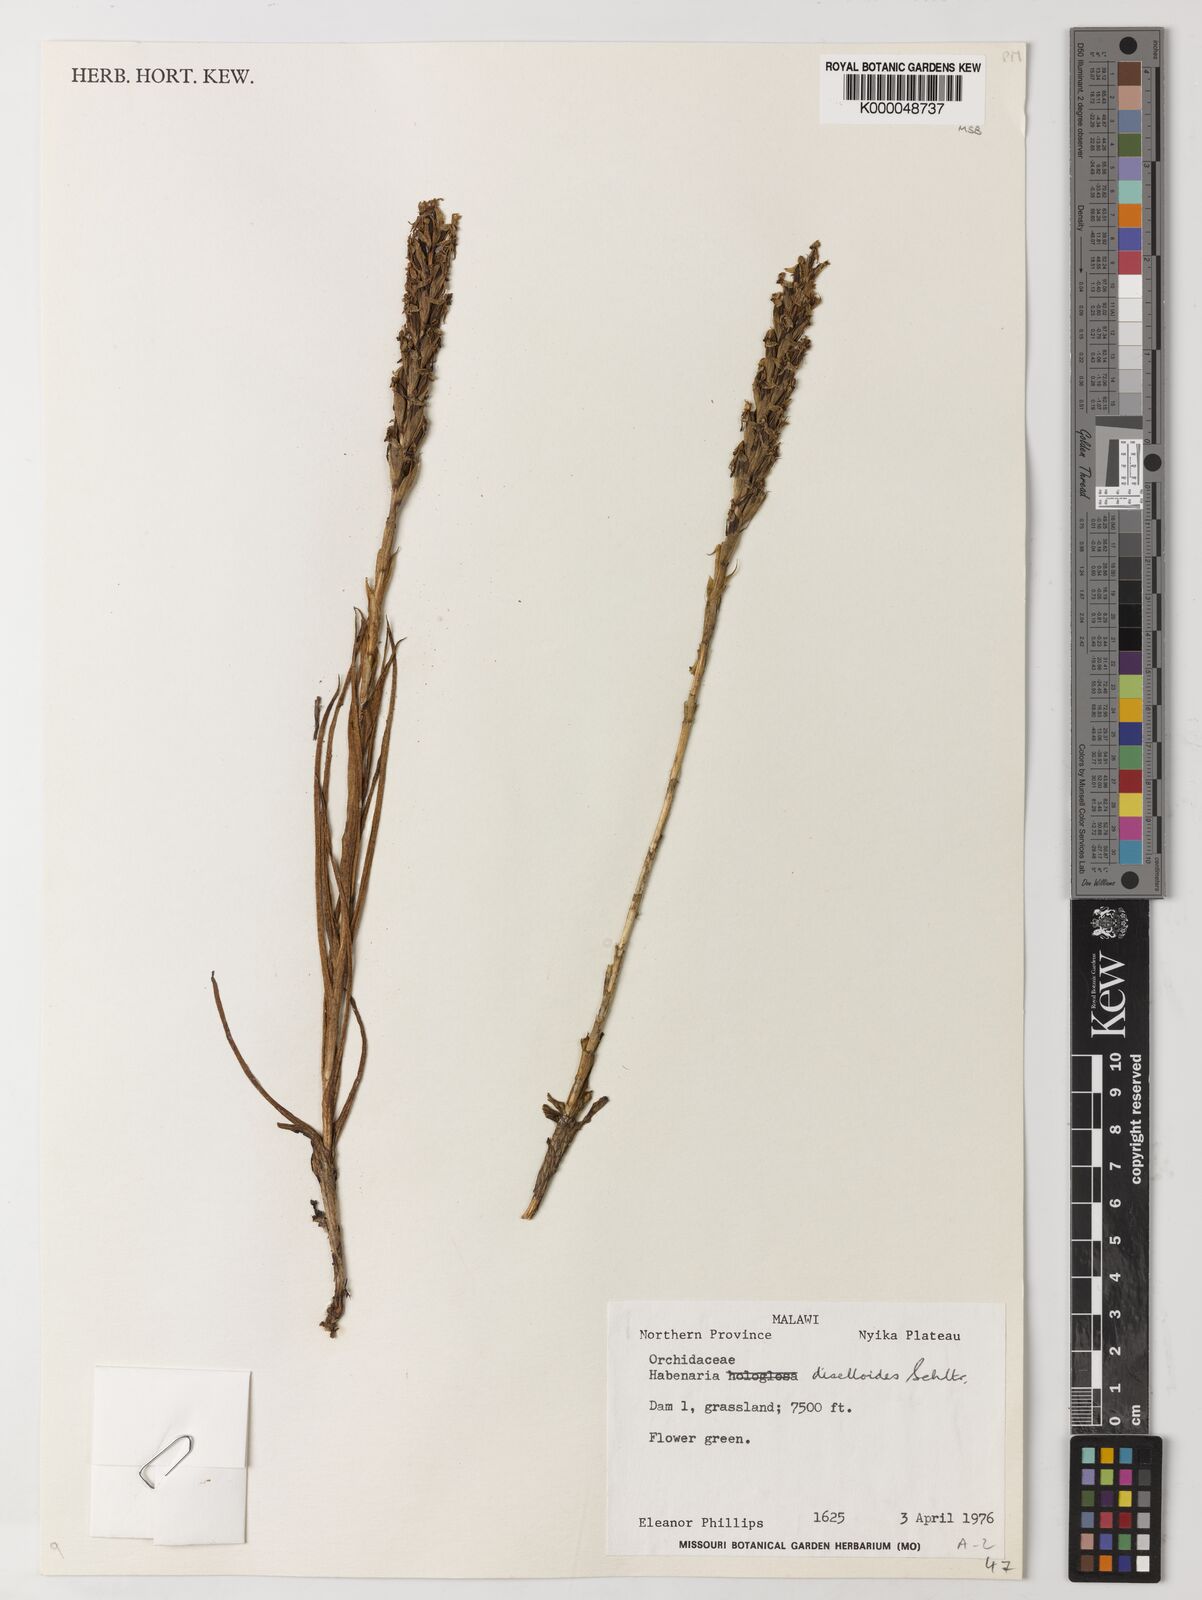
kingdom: Plantae
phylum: Tracheophyta
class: Liliopsida
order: Asparagales
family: Orchidaceae
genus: Habenaria
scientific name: Habenaria diselloides
